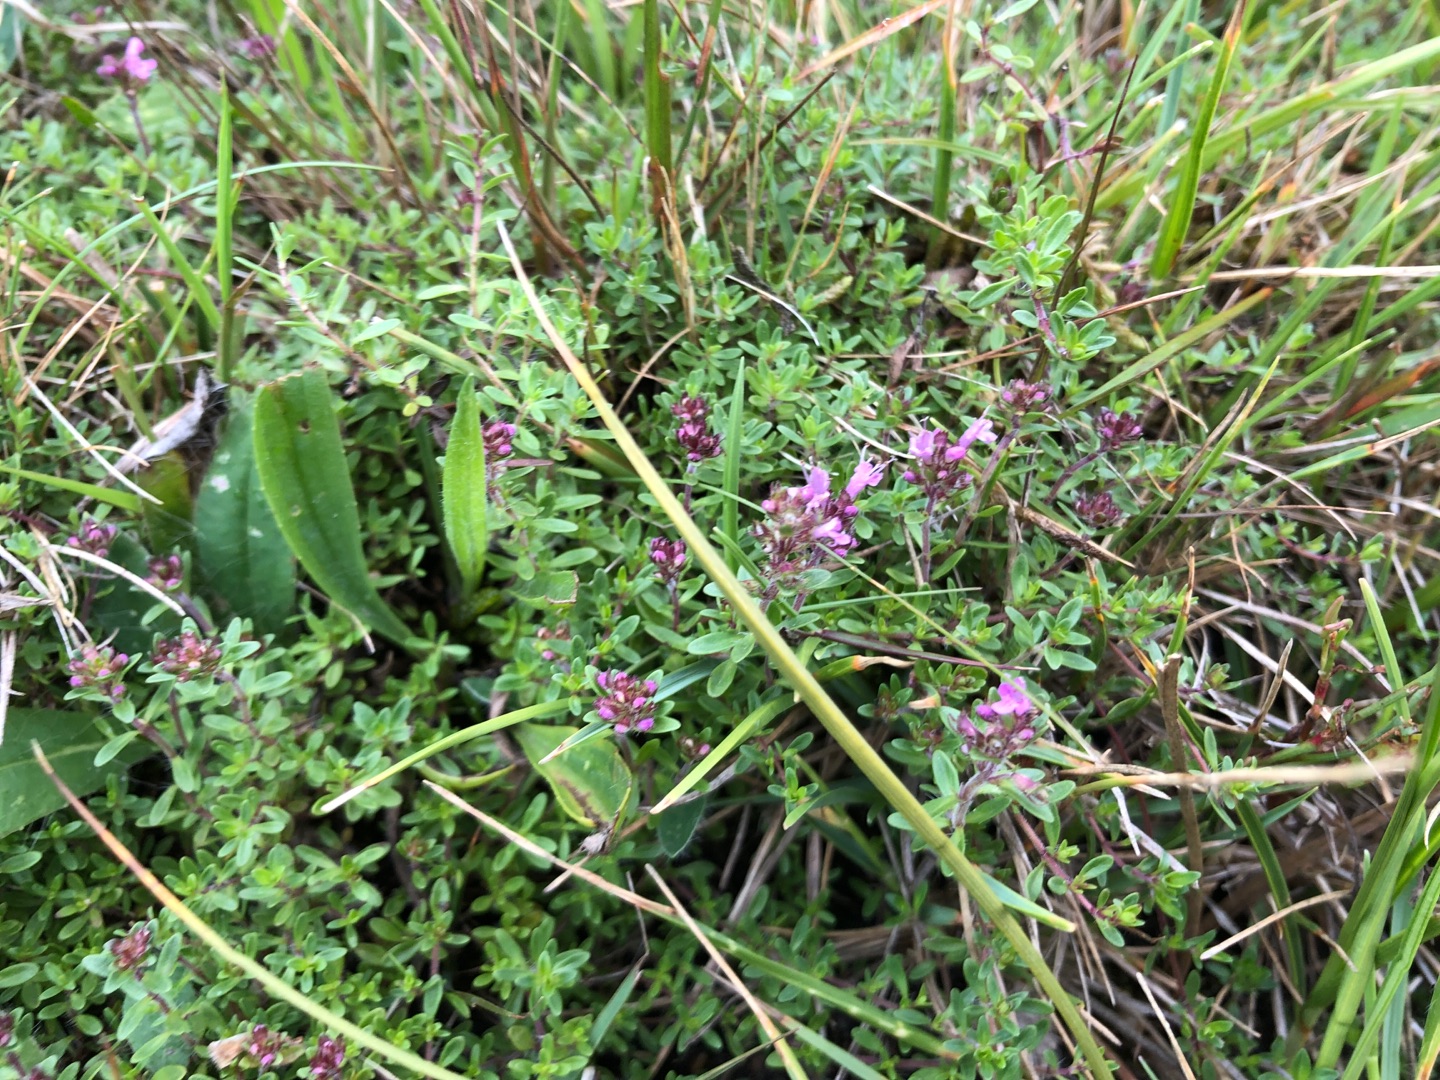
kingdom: Plantae
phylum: Tracheophyta
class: Magnoliopsida
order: Lamiales
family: Lamiaceae
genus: Thymus
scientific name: Thymus serpyllum
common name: Smalbladet timian
